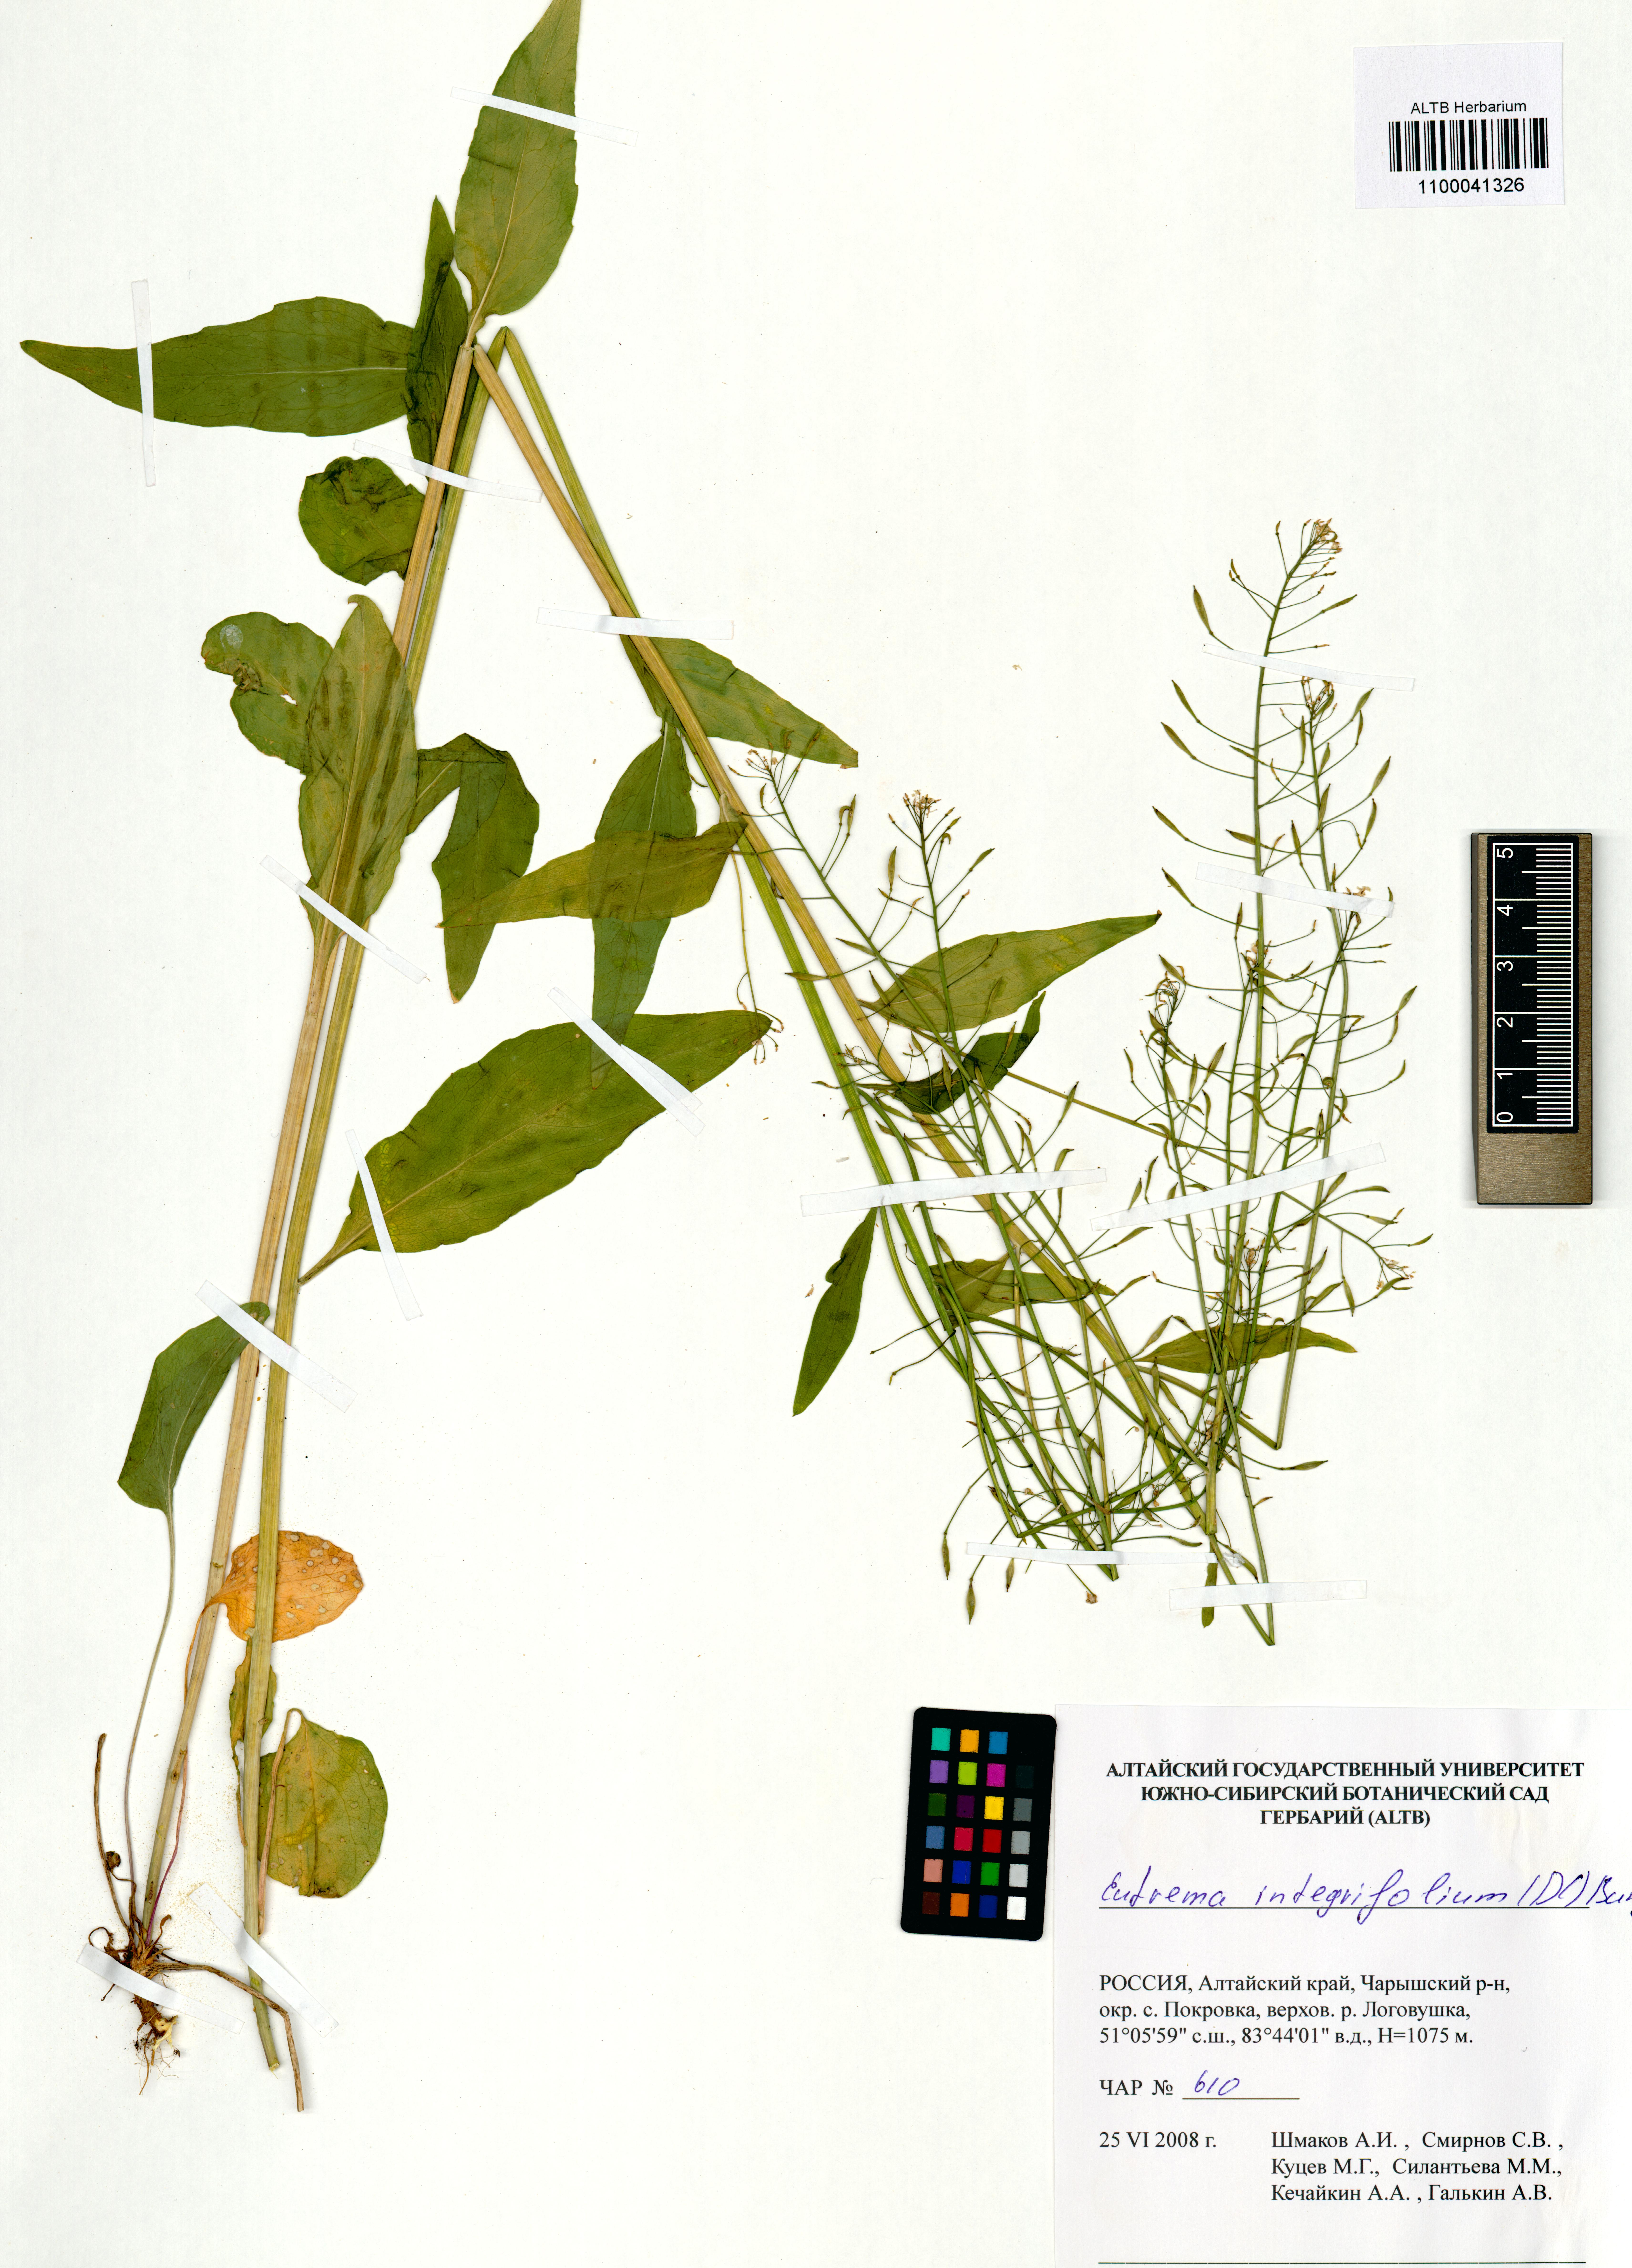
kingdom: Plantae
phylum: Tracheophyta
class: Magnoliopsida
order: Brassicales
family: Brassicaceae
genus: Eutrema
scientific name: Eutrema integrifolium
